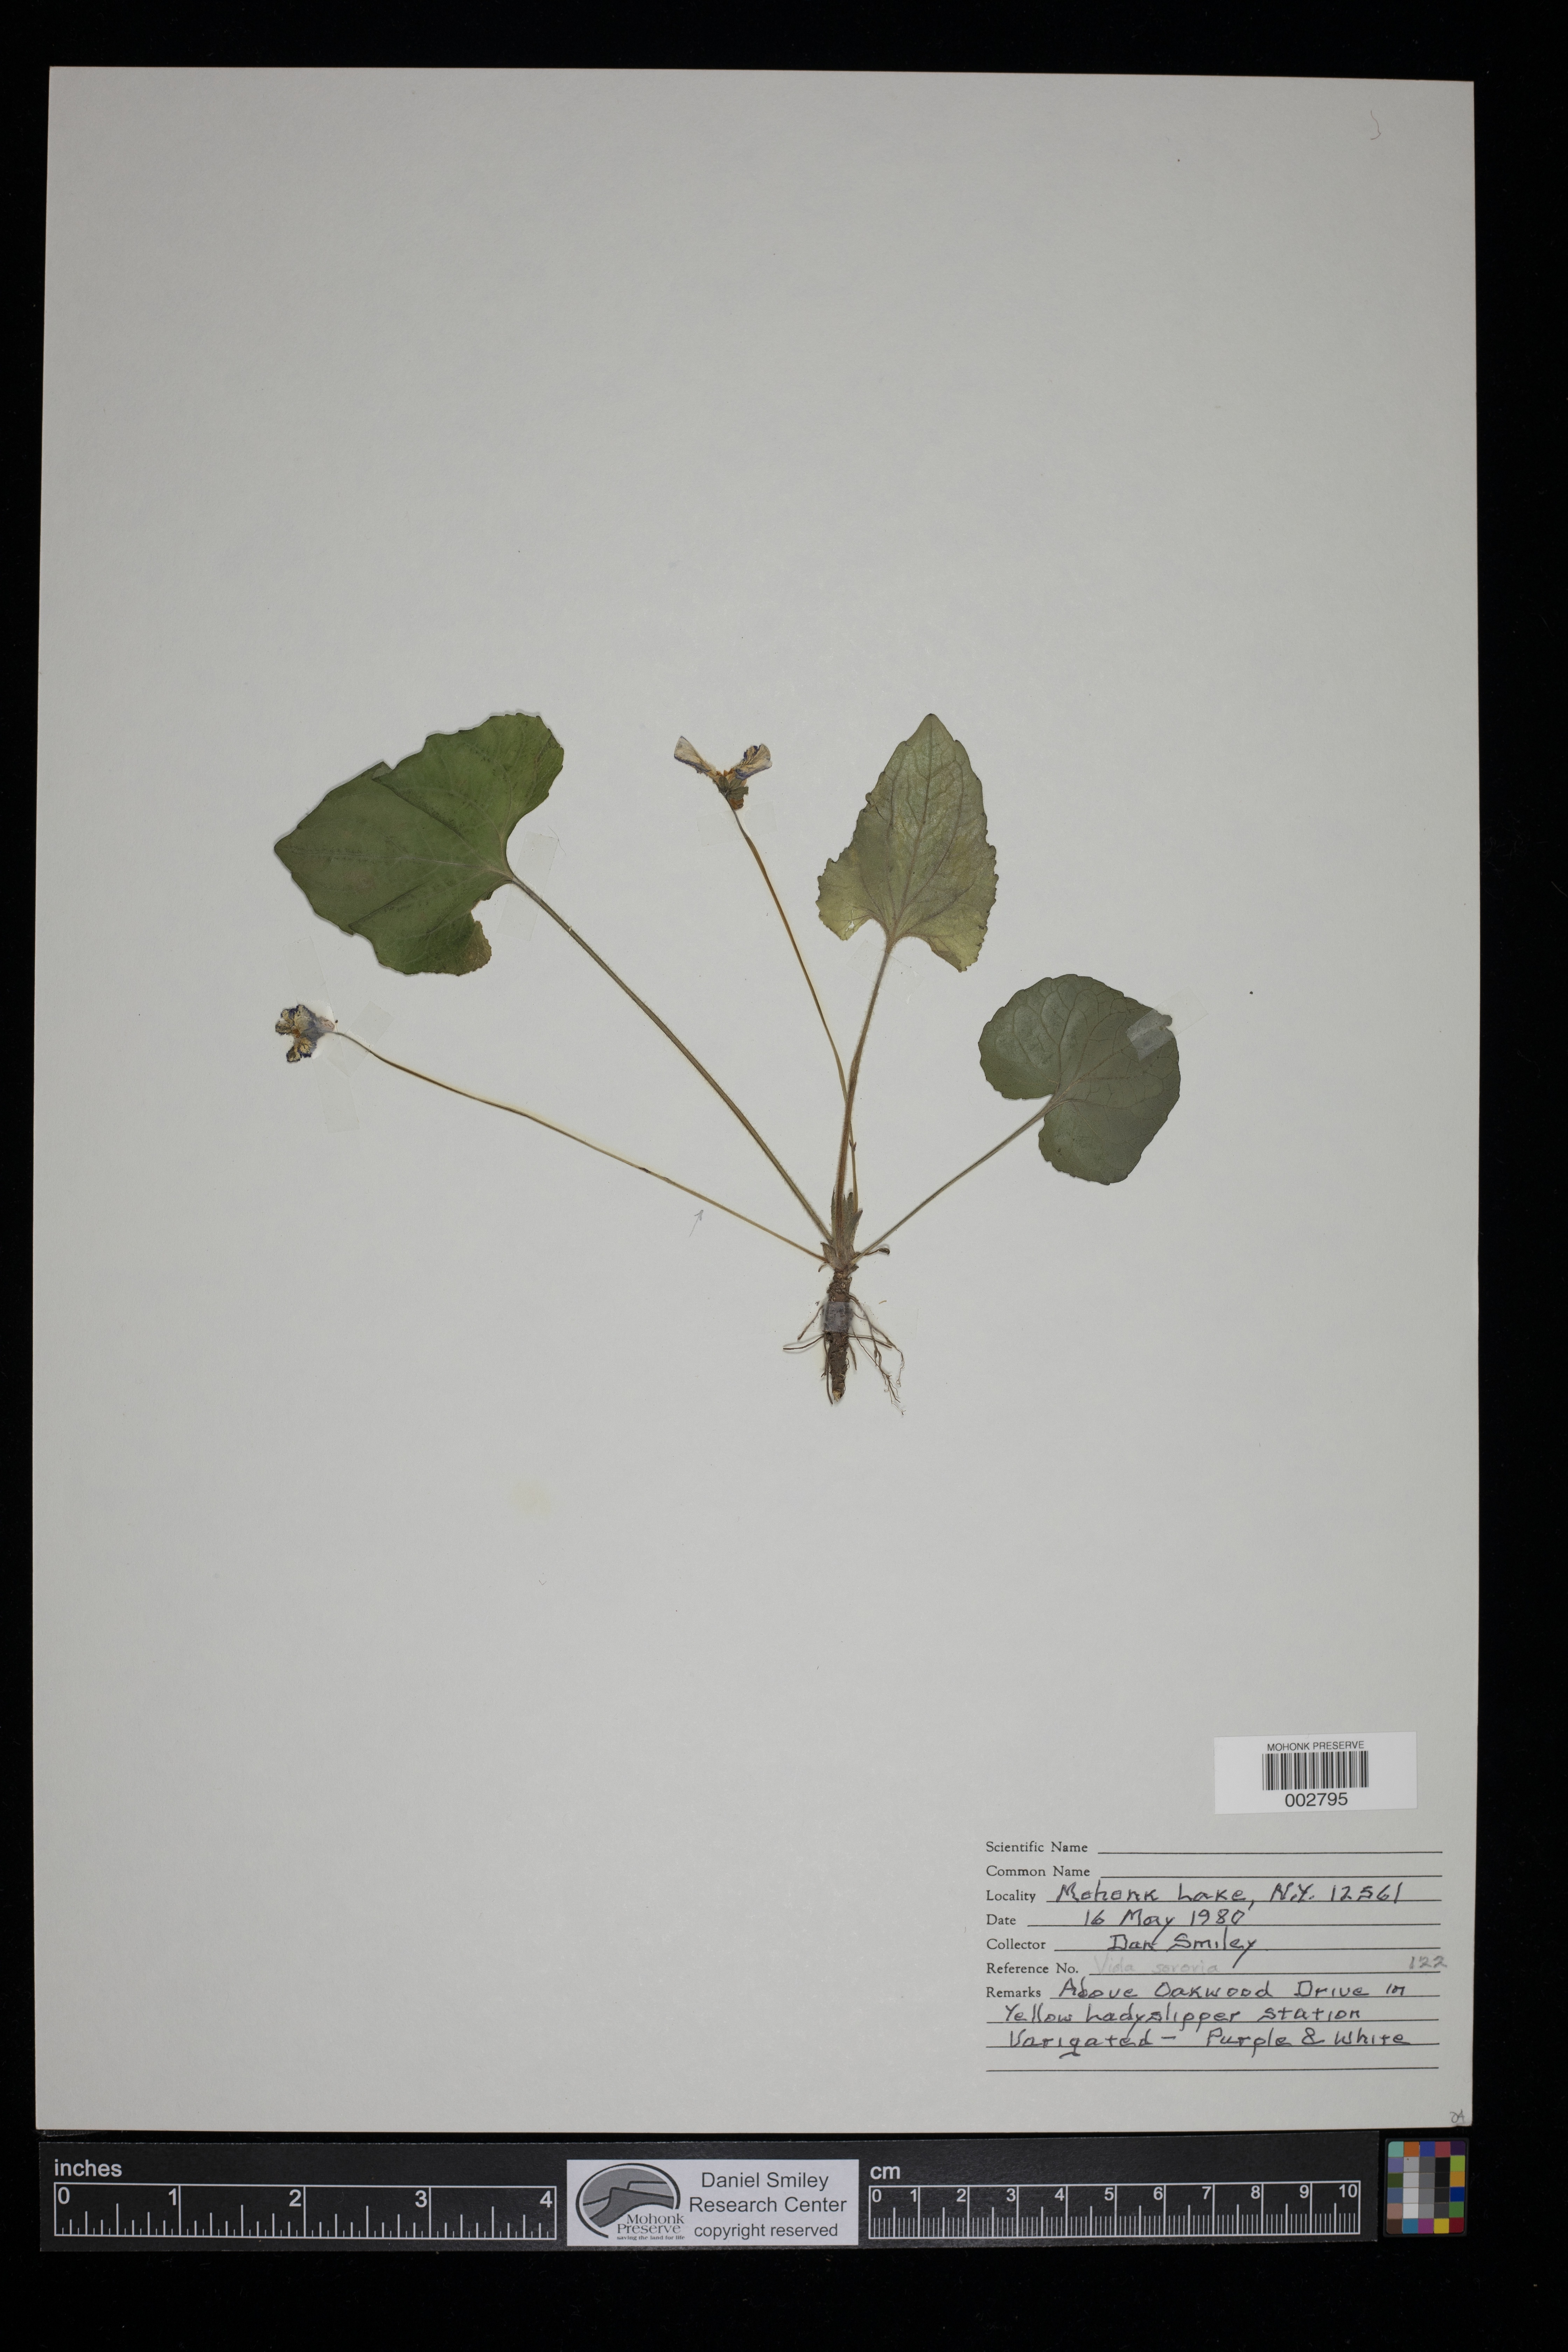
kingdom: Plantae
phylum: Tracheophyta
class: Magnoliopsida
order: Malpighiales
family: Violaceae
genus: Viola
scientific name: Viola sororia
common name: Dooryard violet
